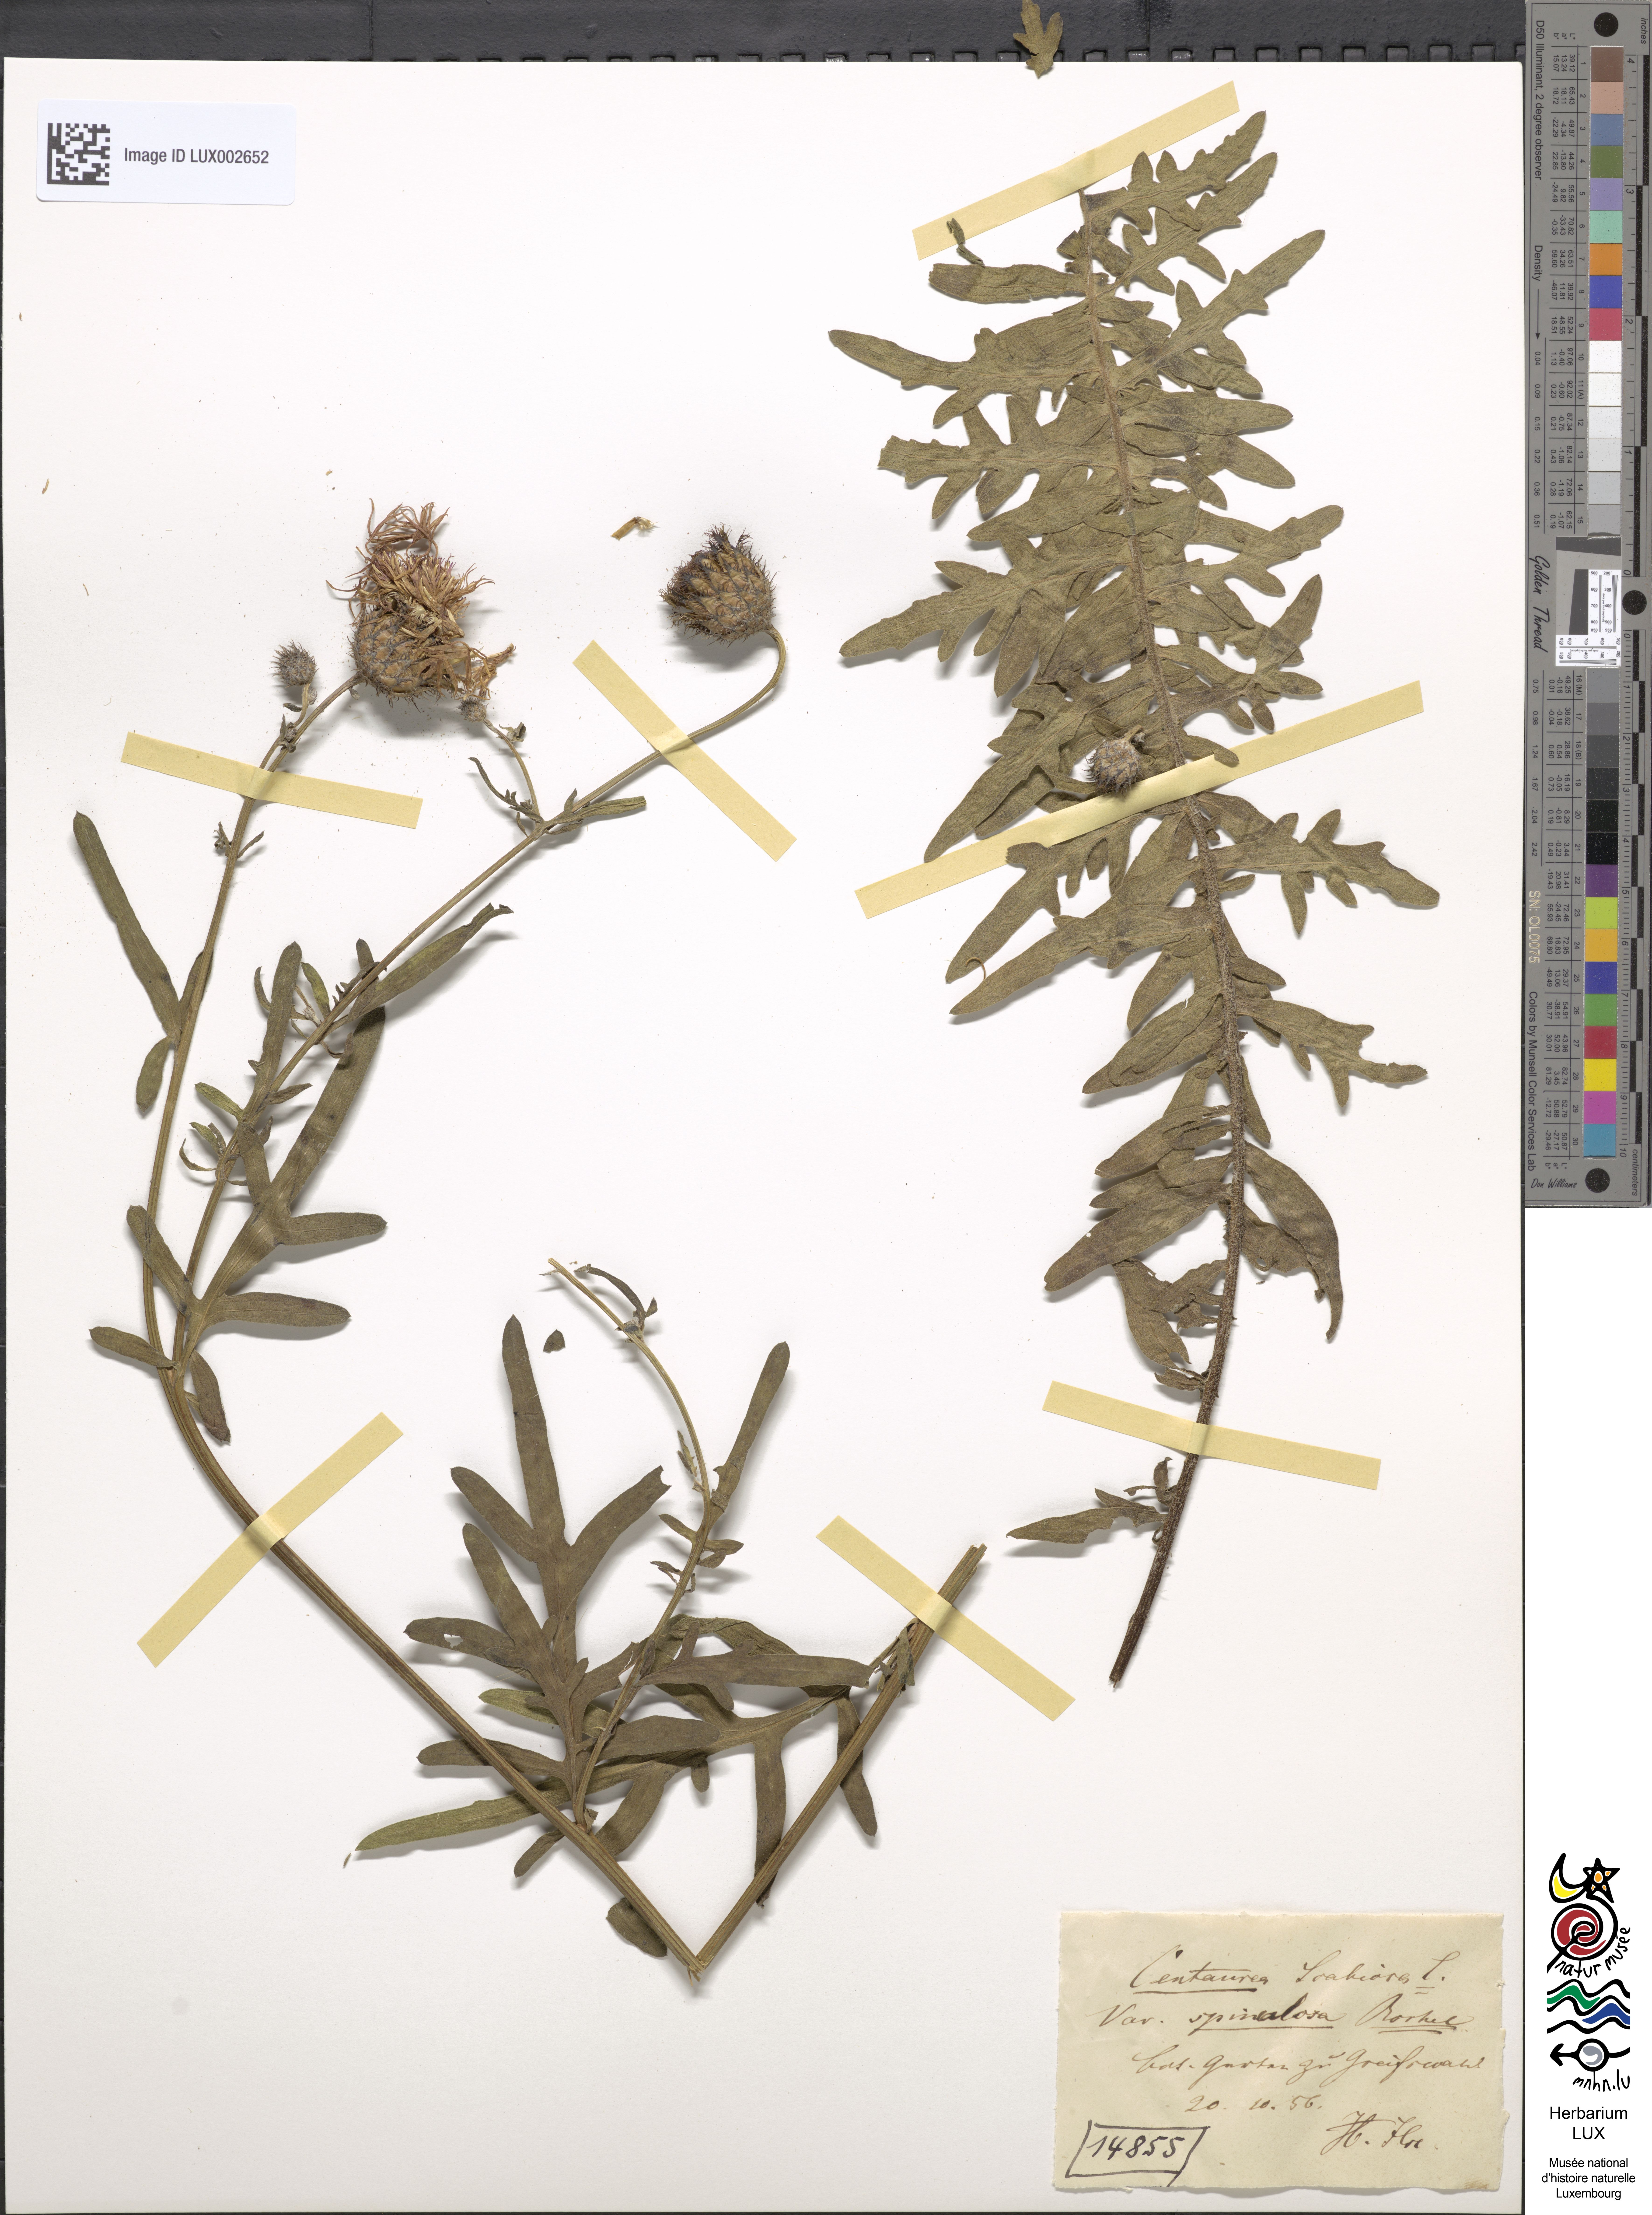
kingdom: Plantae
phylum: Tracheophyta
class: Magnoliopsida
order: Asterales
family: Asteraceae
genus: Centaurea
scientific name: Centaurea apiculata
